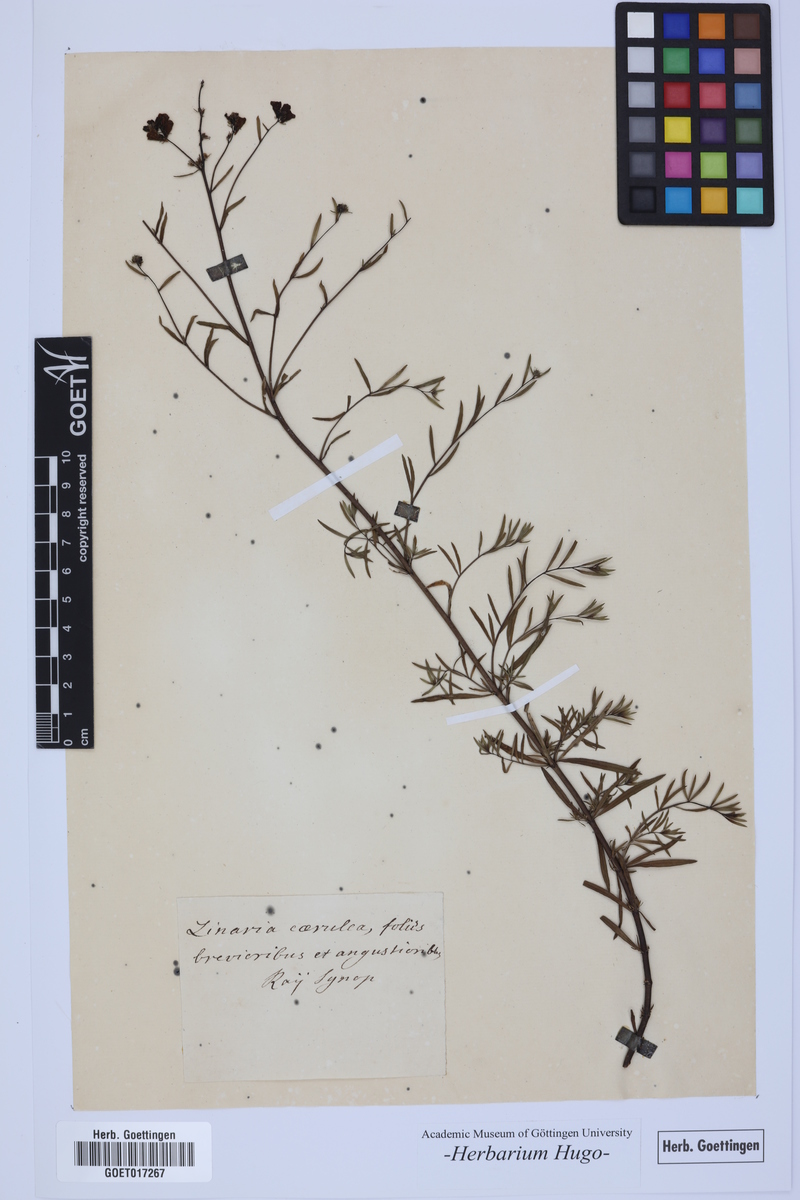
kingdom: Plantae
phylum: Tracheophyta
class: Magnoliopsida
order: Lamiales
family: Plantaginaceae
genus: Linaria
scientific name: Linaria
